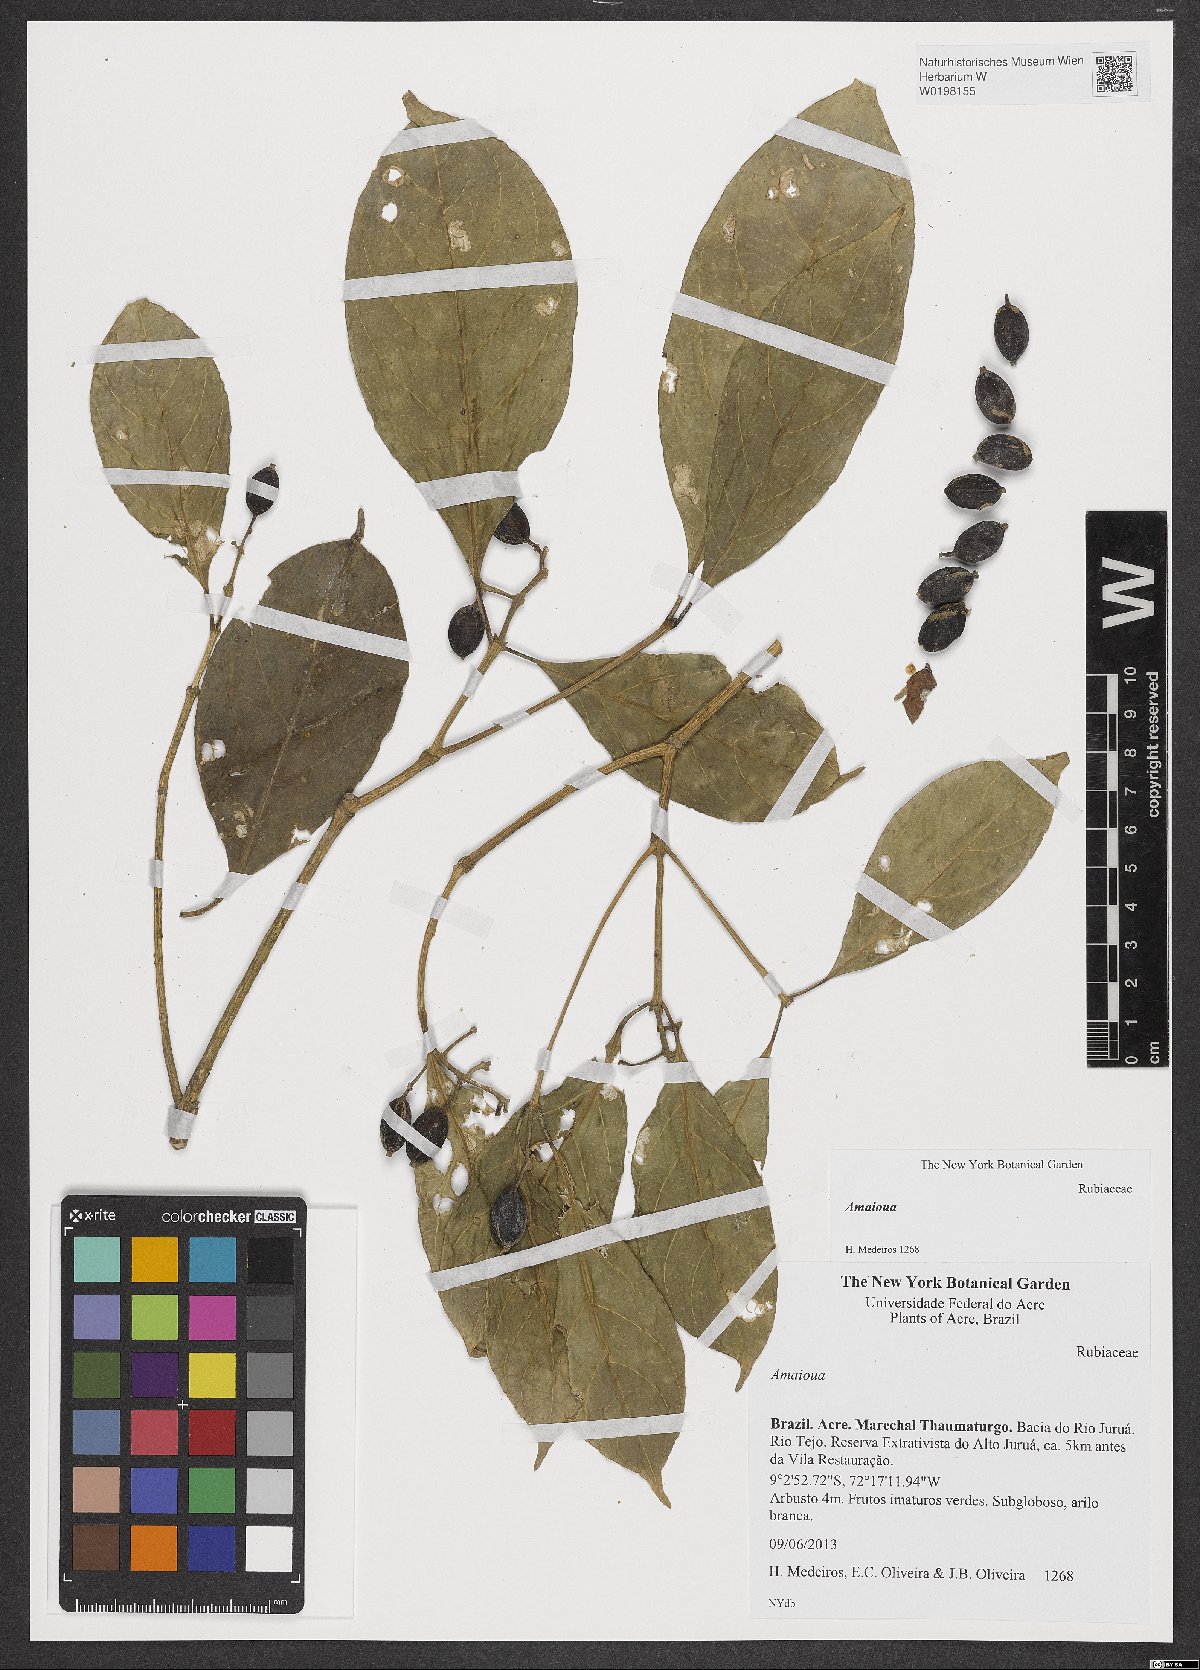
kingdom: Plantae
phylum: Tracheophyta
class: Magnoliopsida
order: Gentianales
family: Rubiaceae
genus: Amaioua
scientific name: Amaioua
